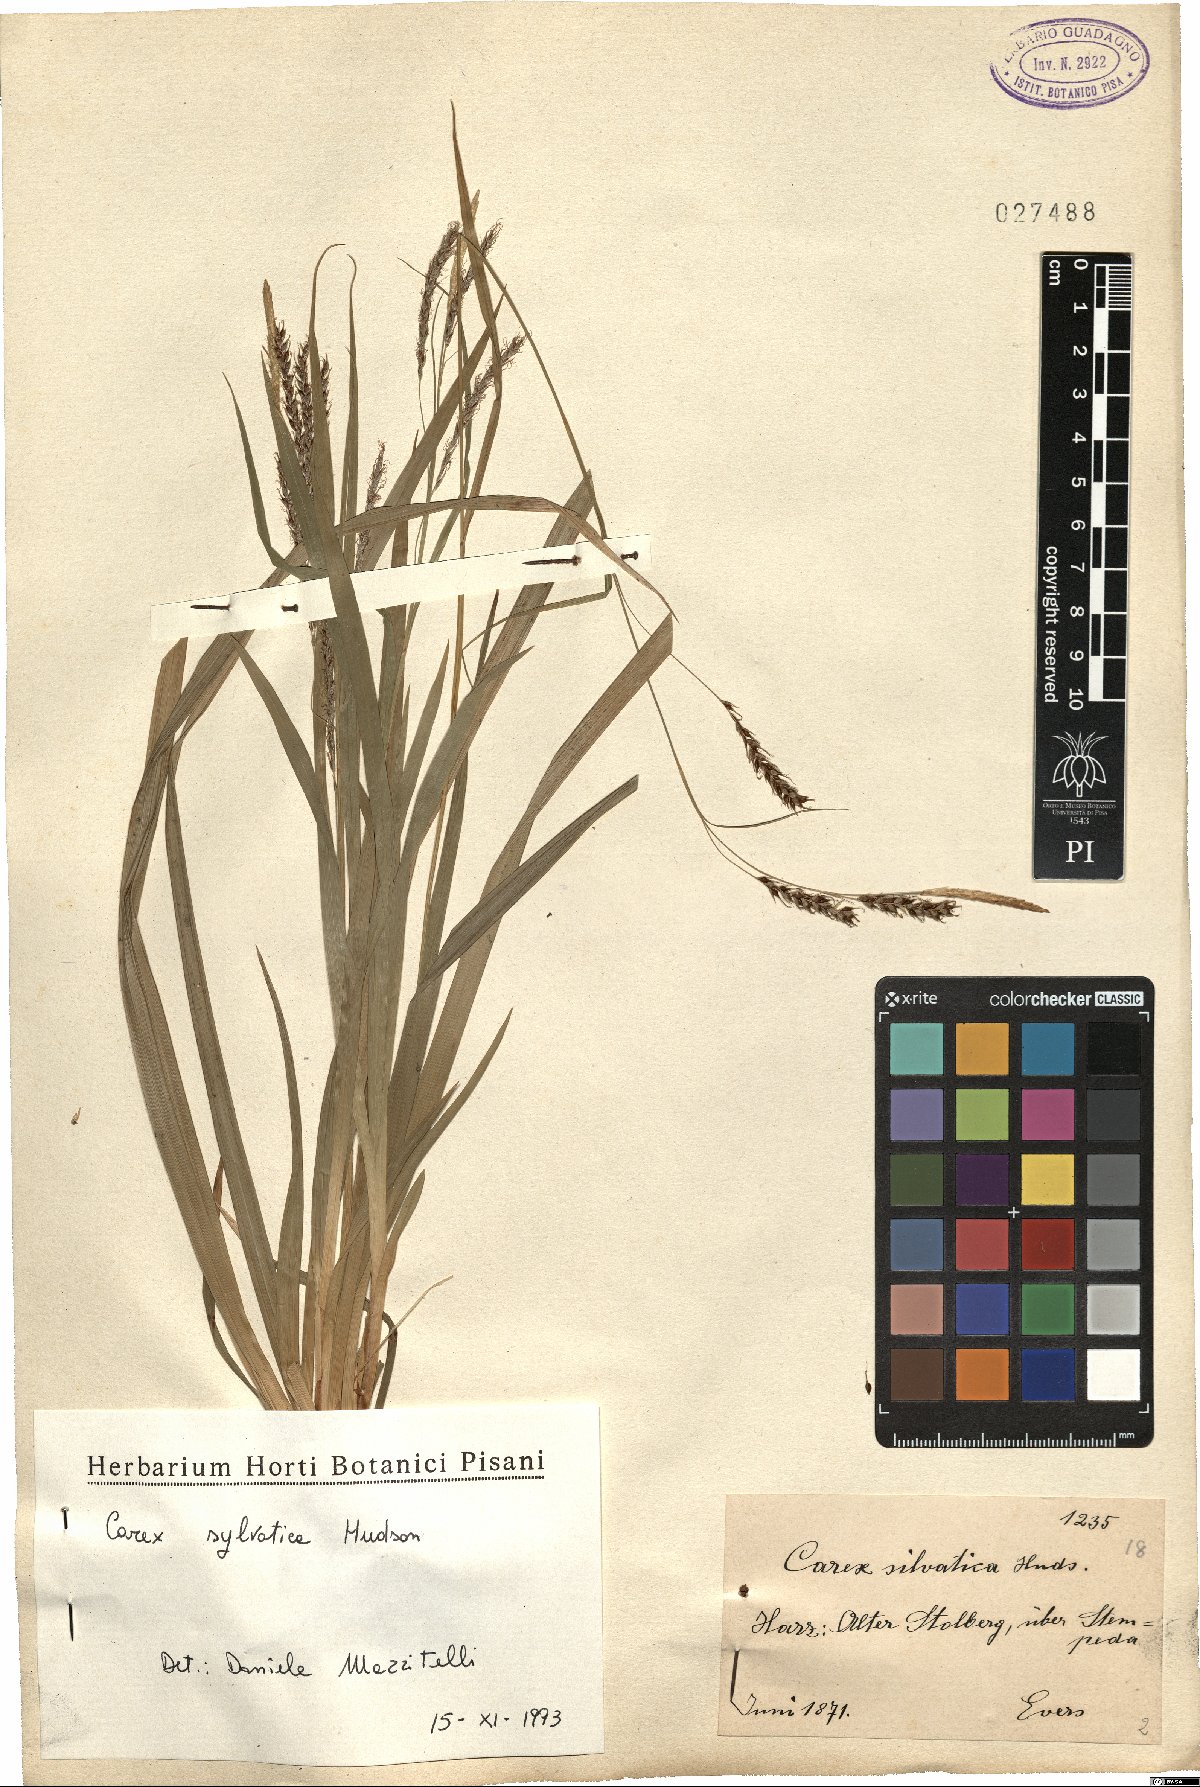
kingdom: Plantae
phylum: Tracheophyta
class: Liliopsida
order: Poales
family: Cyperaceae
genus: Carex
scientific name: Carex sylvatica
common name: Wood-sedge
